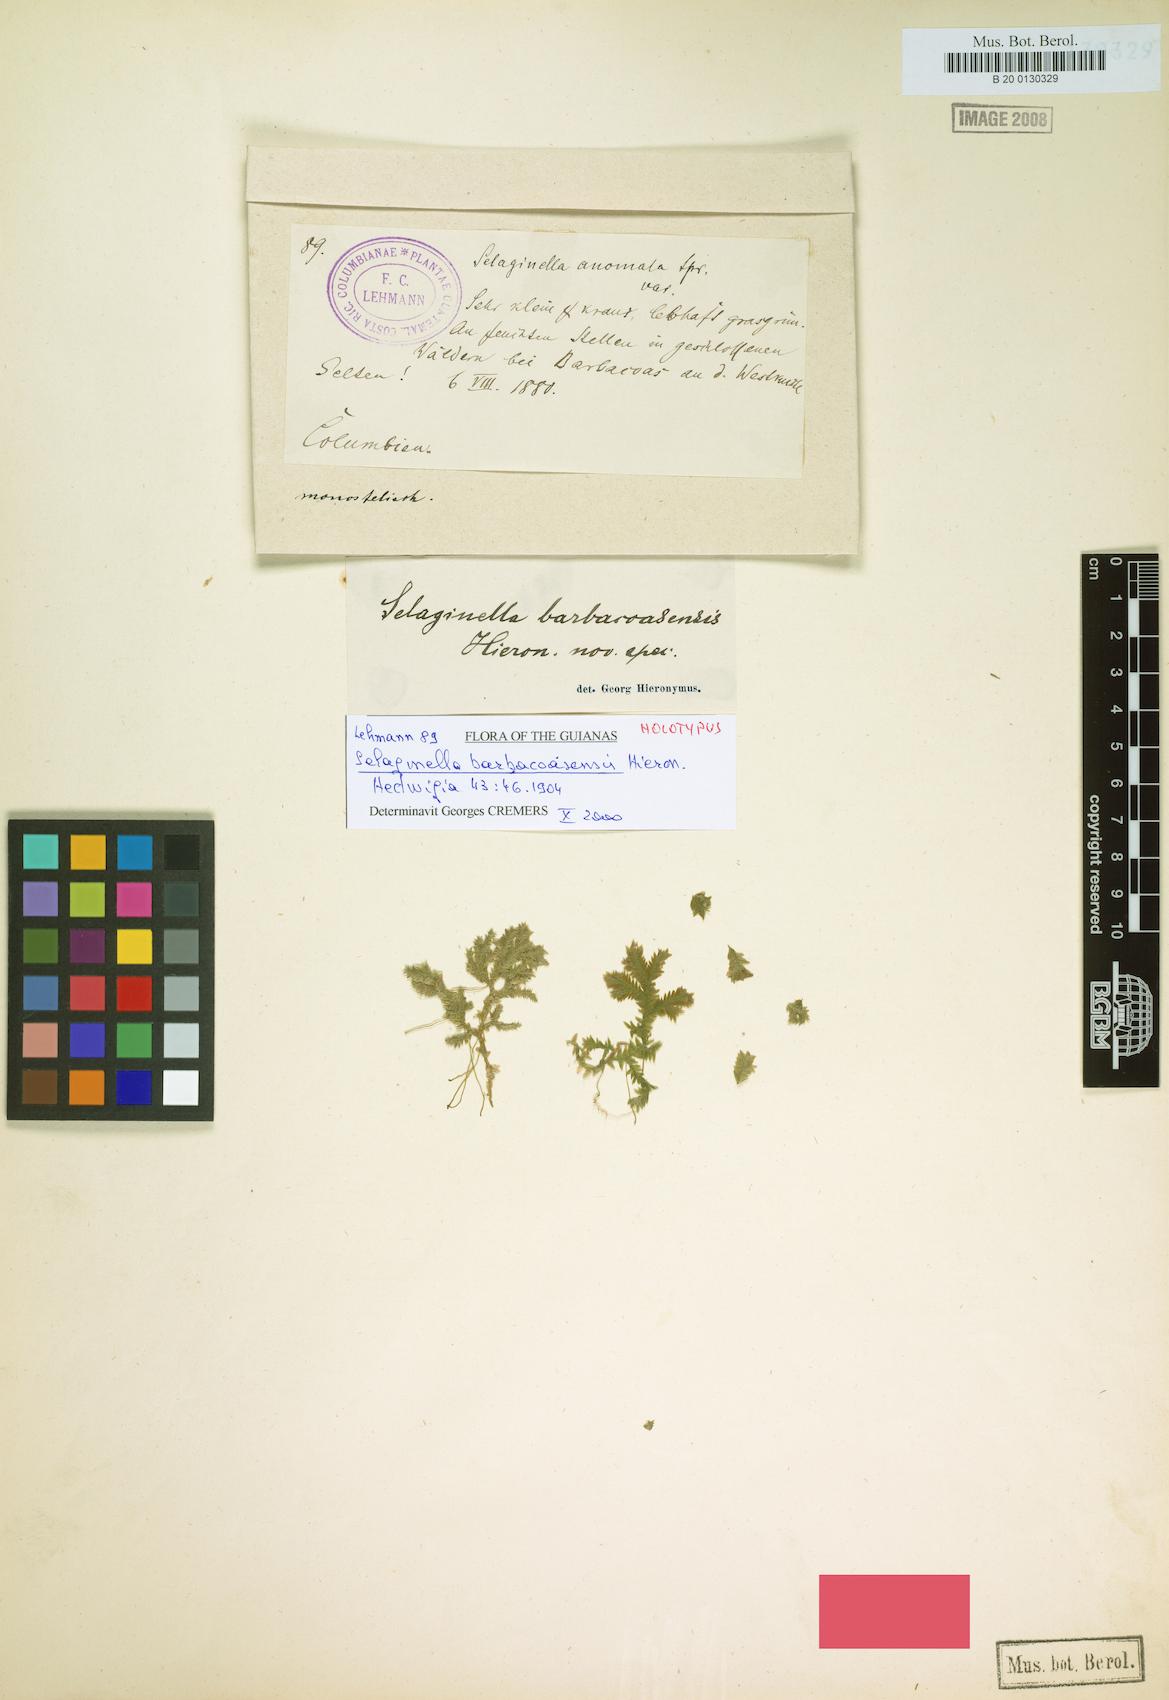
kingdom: Plantae
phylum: Tracheophyta
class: Lycopodiopsida
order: Selaginellales
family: Selaginellaceae
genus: Selaginella
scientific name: Selaginella seemannii
